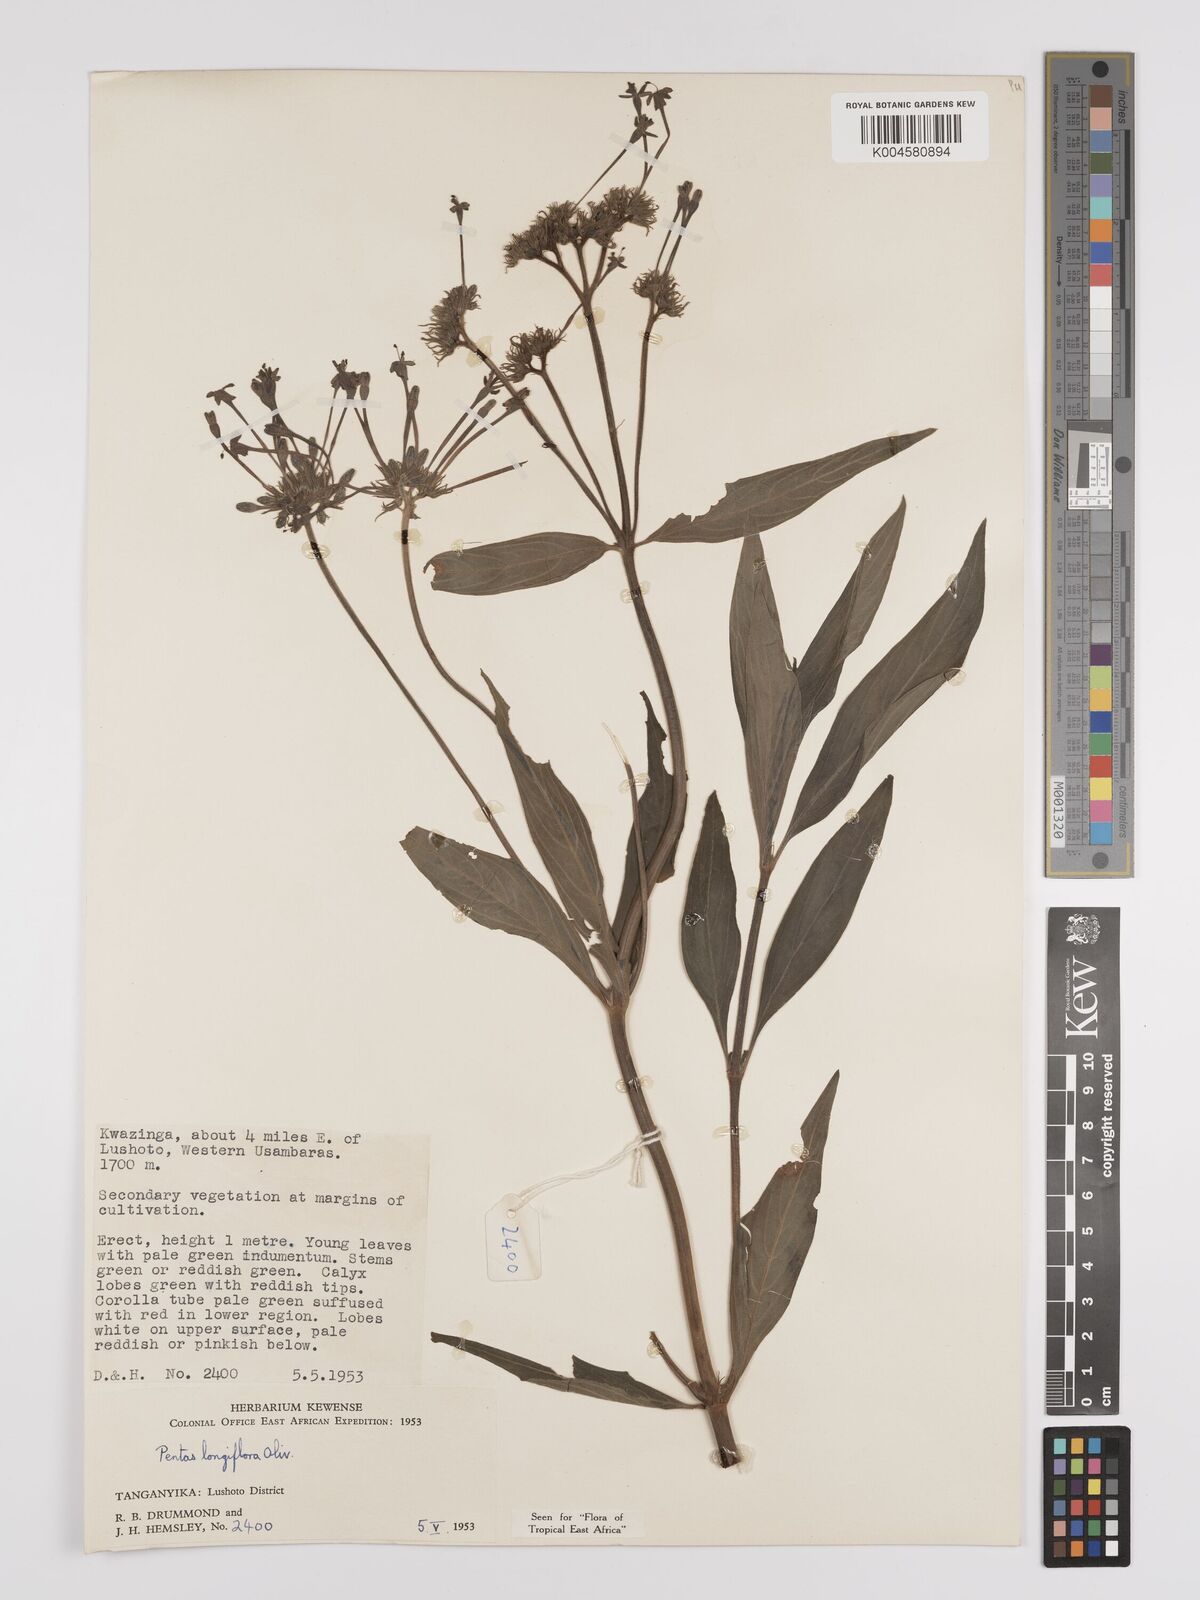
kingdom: Plantae
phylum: Tracheophyta
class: Magnoliopsida
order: Gentianales
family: Rubiaceae
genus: Dolichopentas
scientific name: Dolichopentas longiflora
